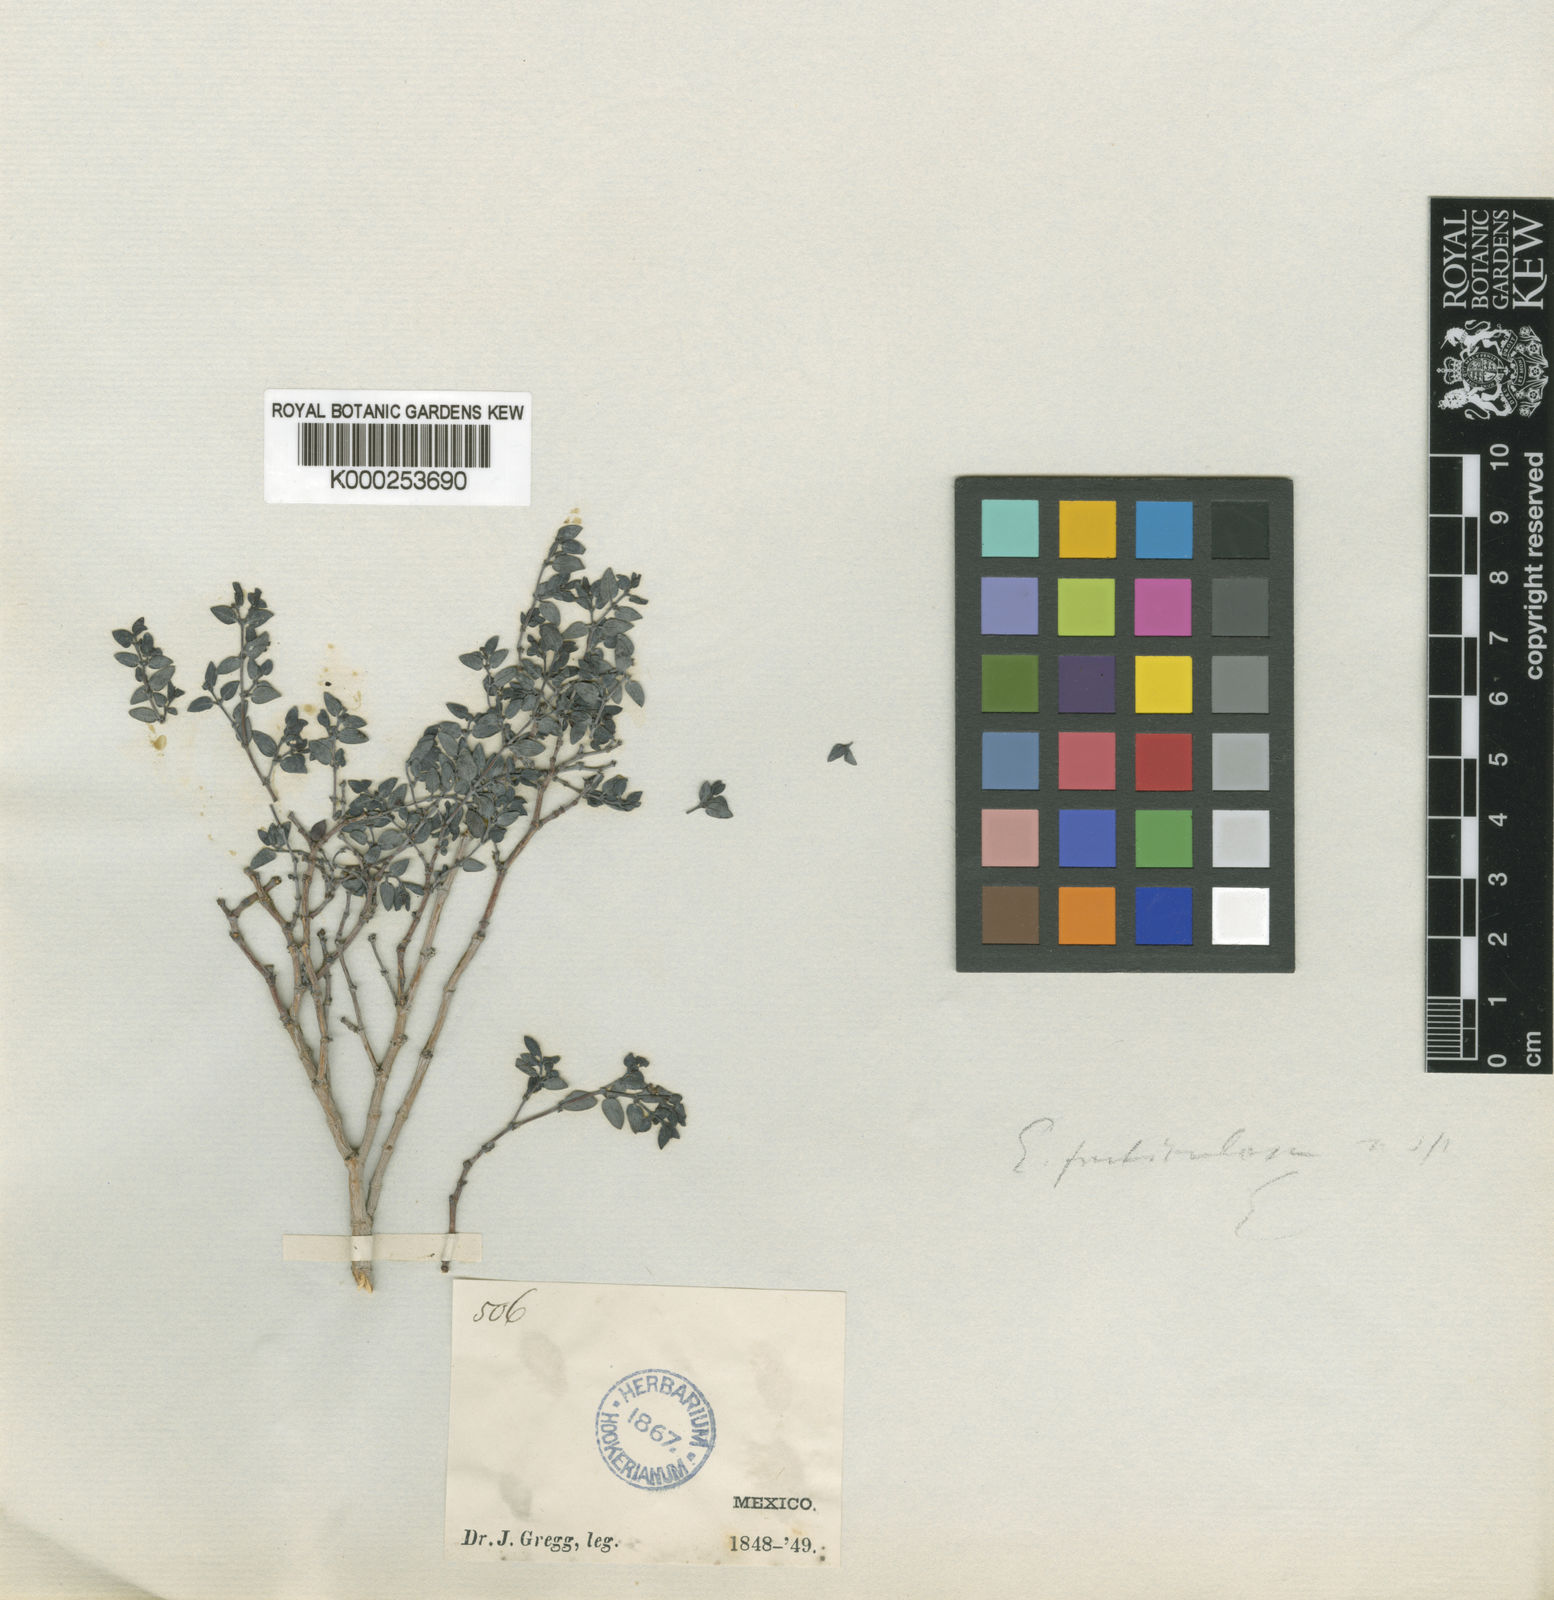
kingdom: Plantae
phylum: Tracheophyta
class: Magnoliopsida
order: Malpighiales
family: Euphorbiaceae
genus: Euphorbia
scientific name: Euphorbia fruticulosa
